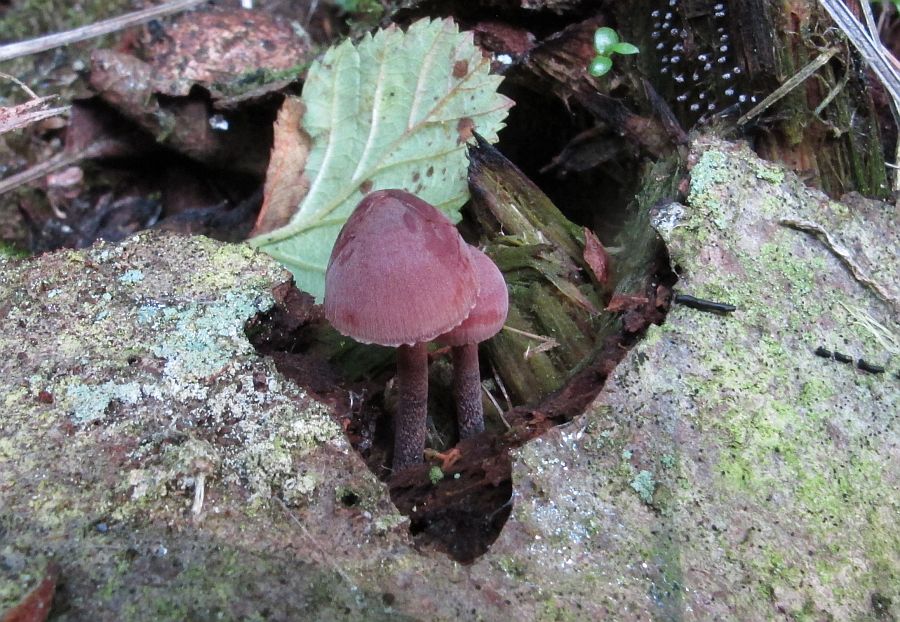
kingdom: Fungi
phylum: Basidiomycota
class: Agaricomycetes
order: Agaricales
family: Mycenaceae
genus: Mycena
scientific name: Mycena haematopus
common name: blødende huesvamp
